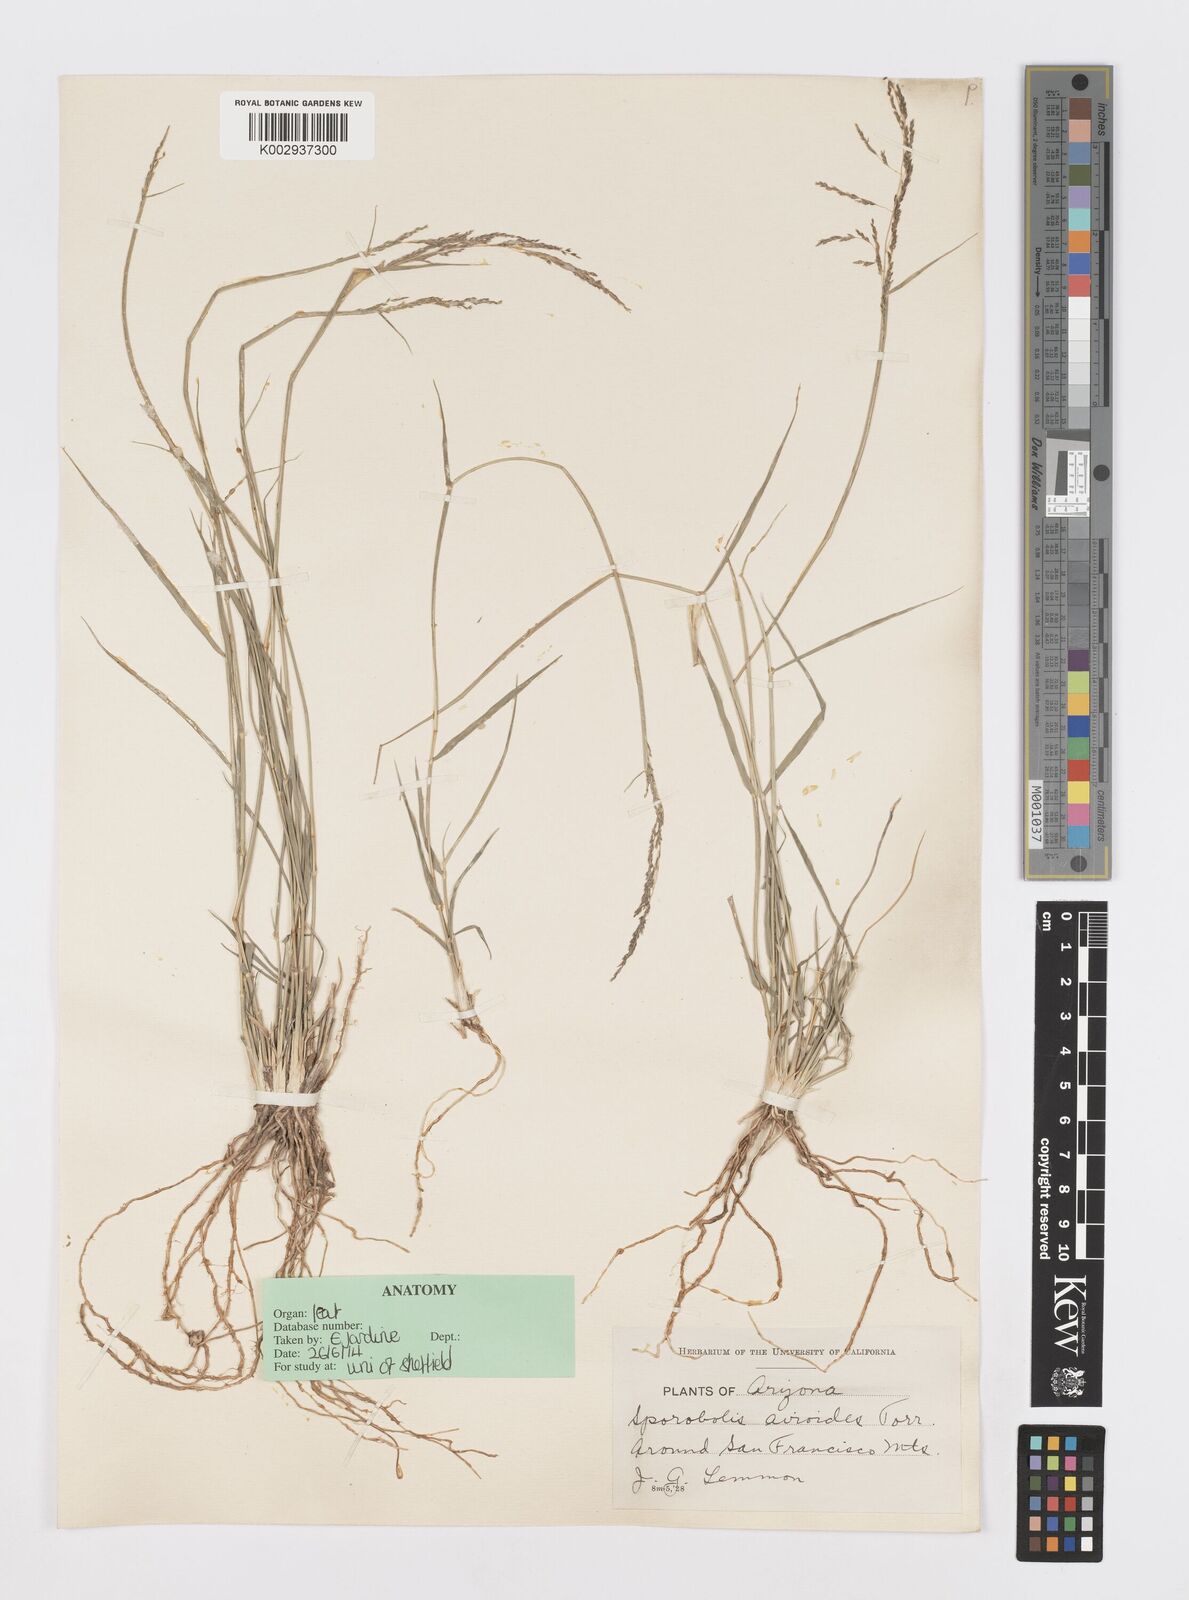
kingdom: Plantae
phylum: Tracheophyta
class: Liliopsida
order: Poales
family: Poaceae
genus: Sporobolus
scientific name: Sporobolus airoides
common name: Alkali sacaton
